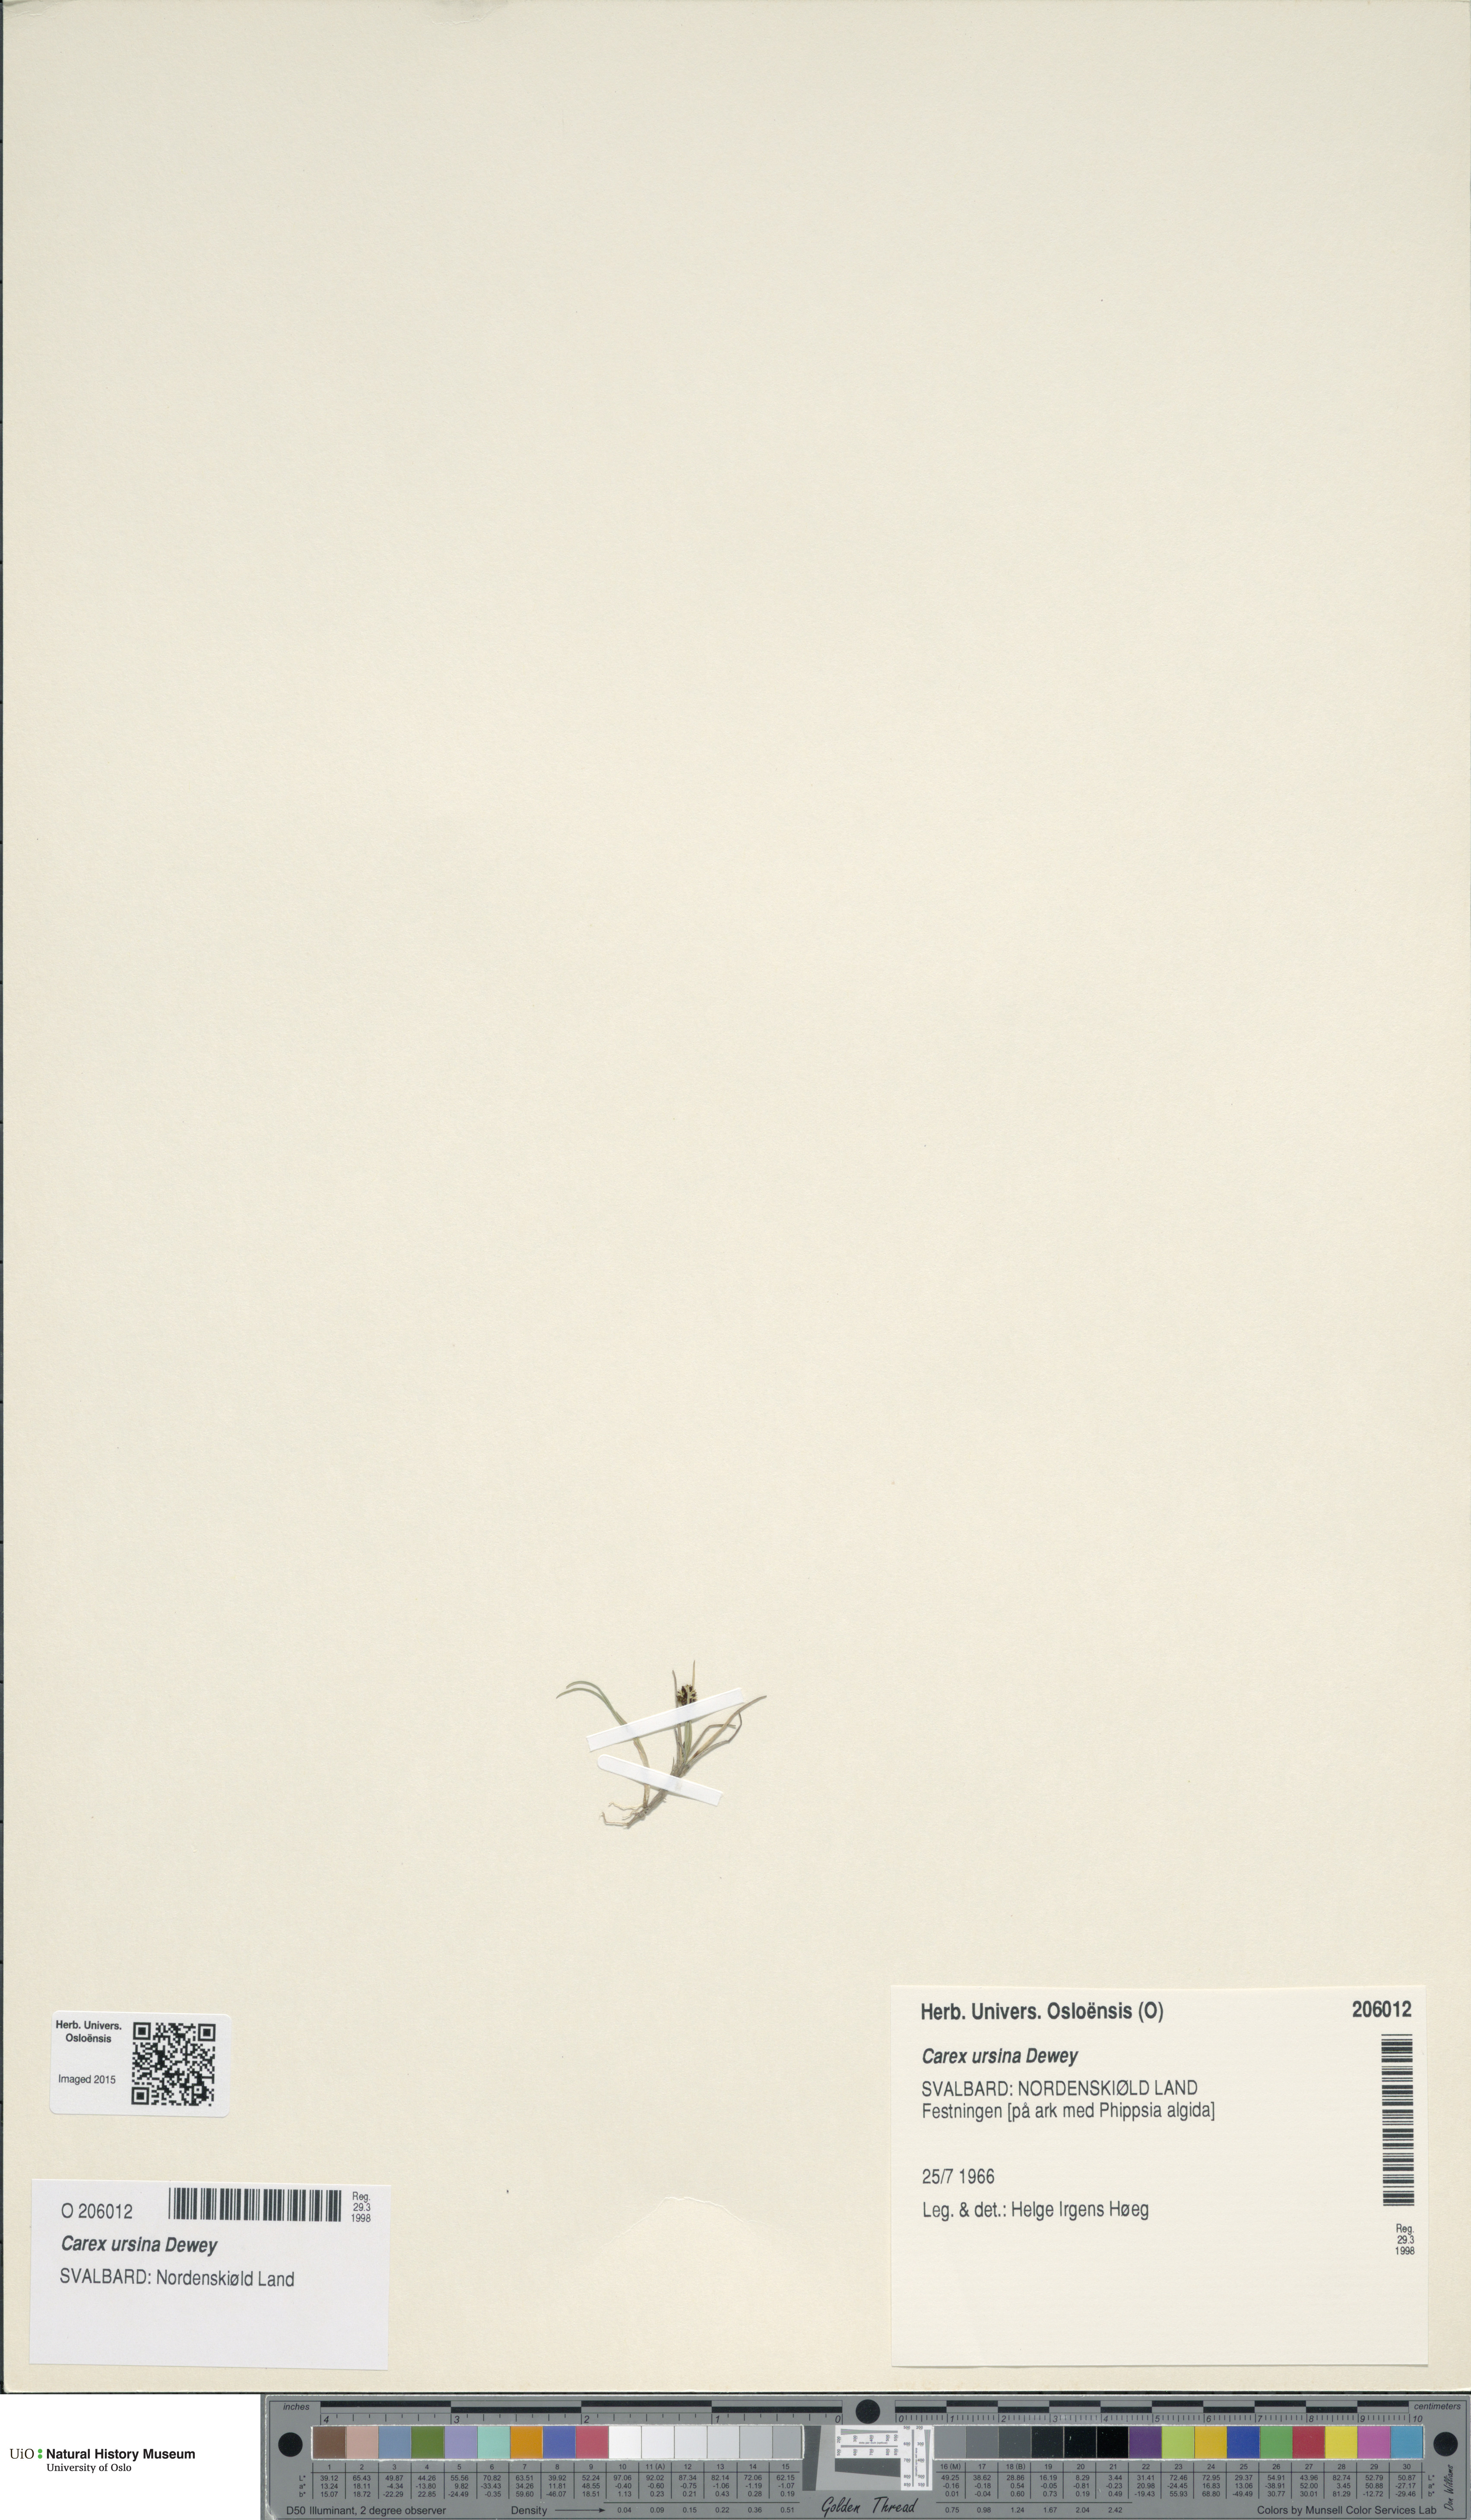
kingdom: Plantae
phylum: Tracheophyta
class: Liliopsida
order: Poales
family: Cyperaceae
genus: Carex
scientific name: Carex ursina
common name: Bear sedge
